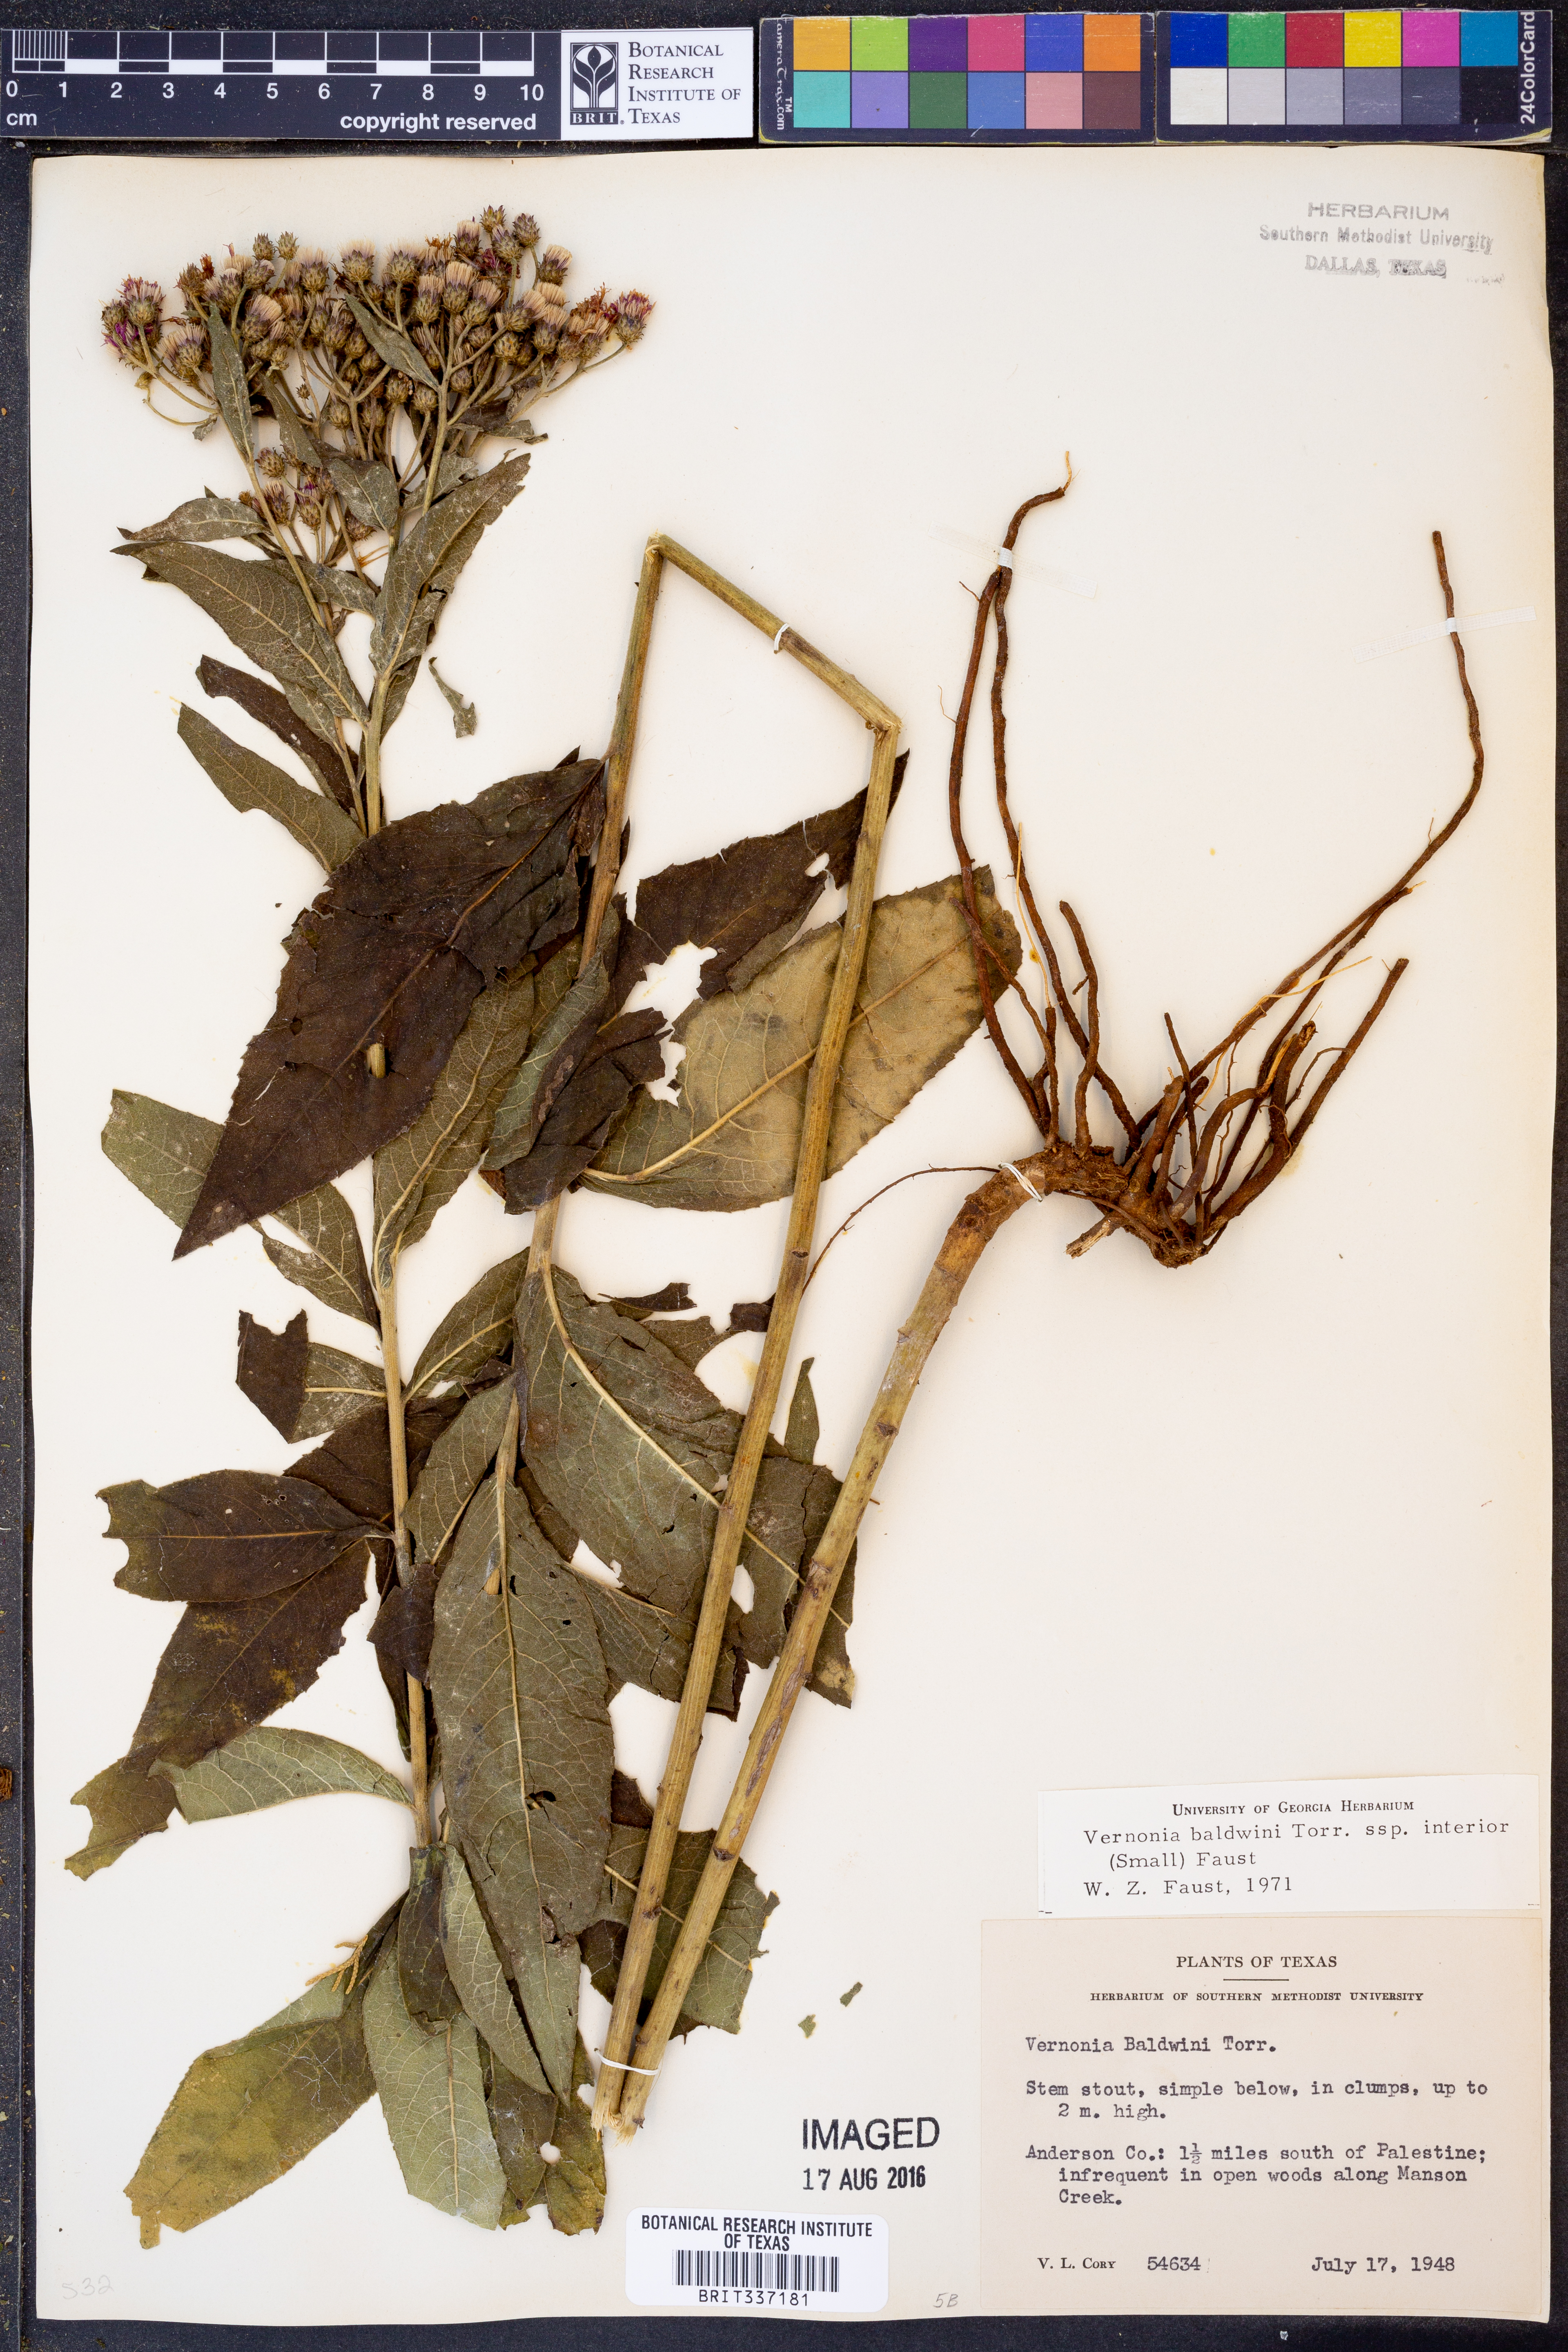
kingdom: Plantae
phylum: Tracheophyta
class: Magnoliopsida
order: Asterales
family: Asteraceae
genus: Vernonia
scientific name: Vernonia baldwinii
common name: Western ironweed
